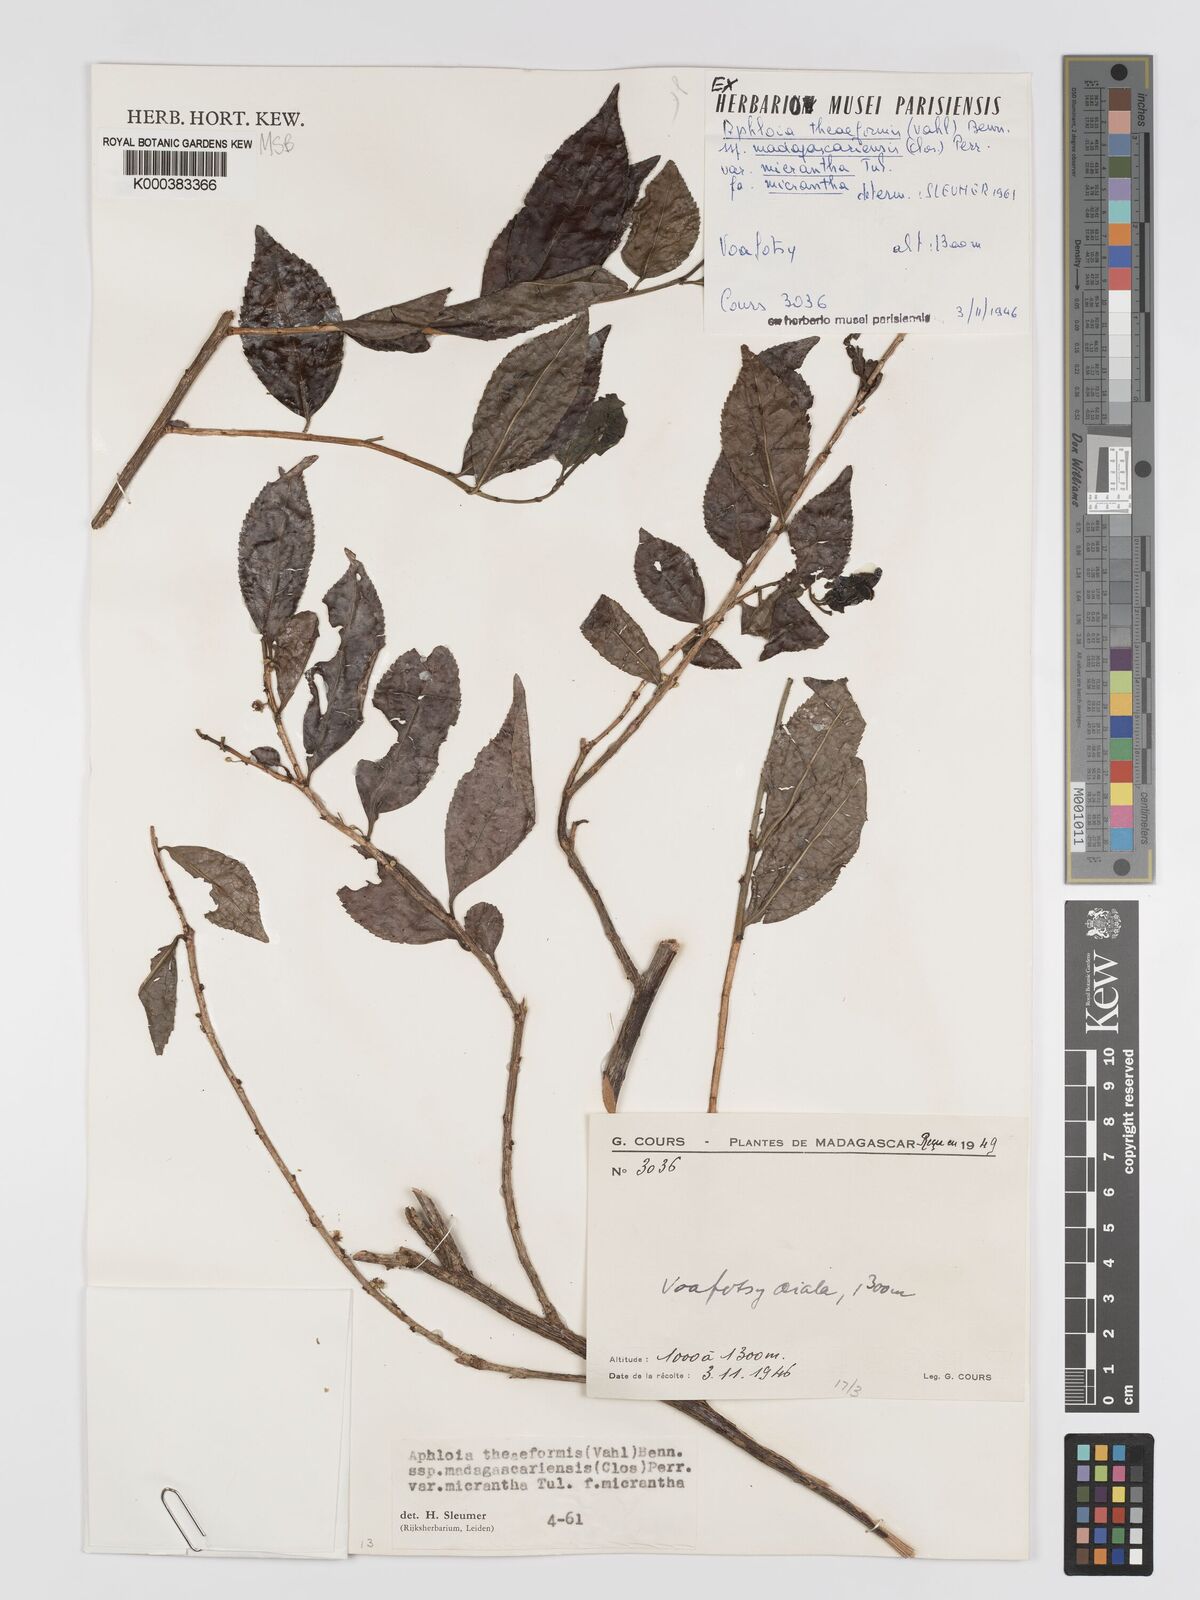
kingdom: Plantae
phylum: Tracheophyta
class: Magnoliopsida
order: Crossosomatales
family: Aphloiaceae
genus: Aphloia
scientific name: Aphloia theiformis
